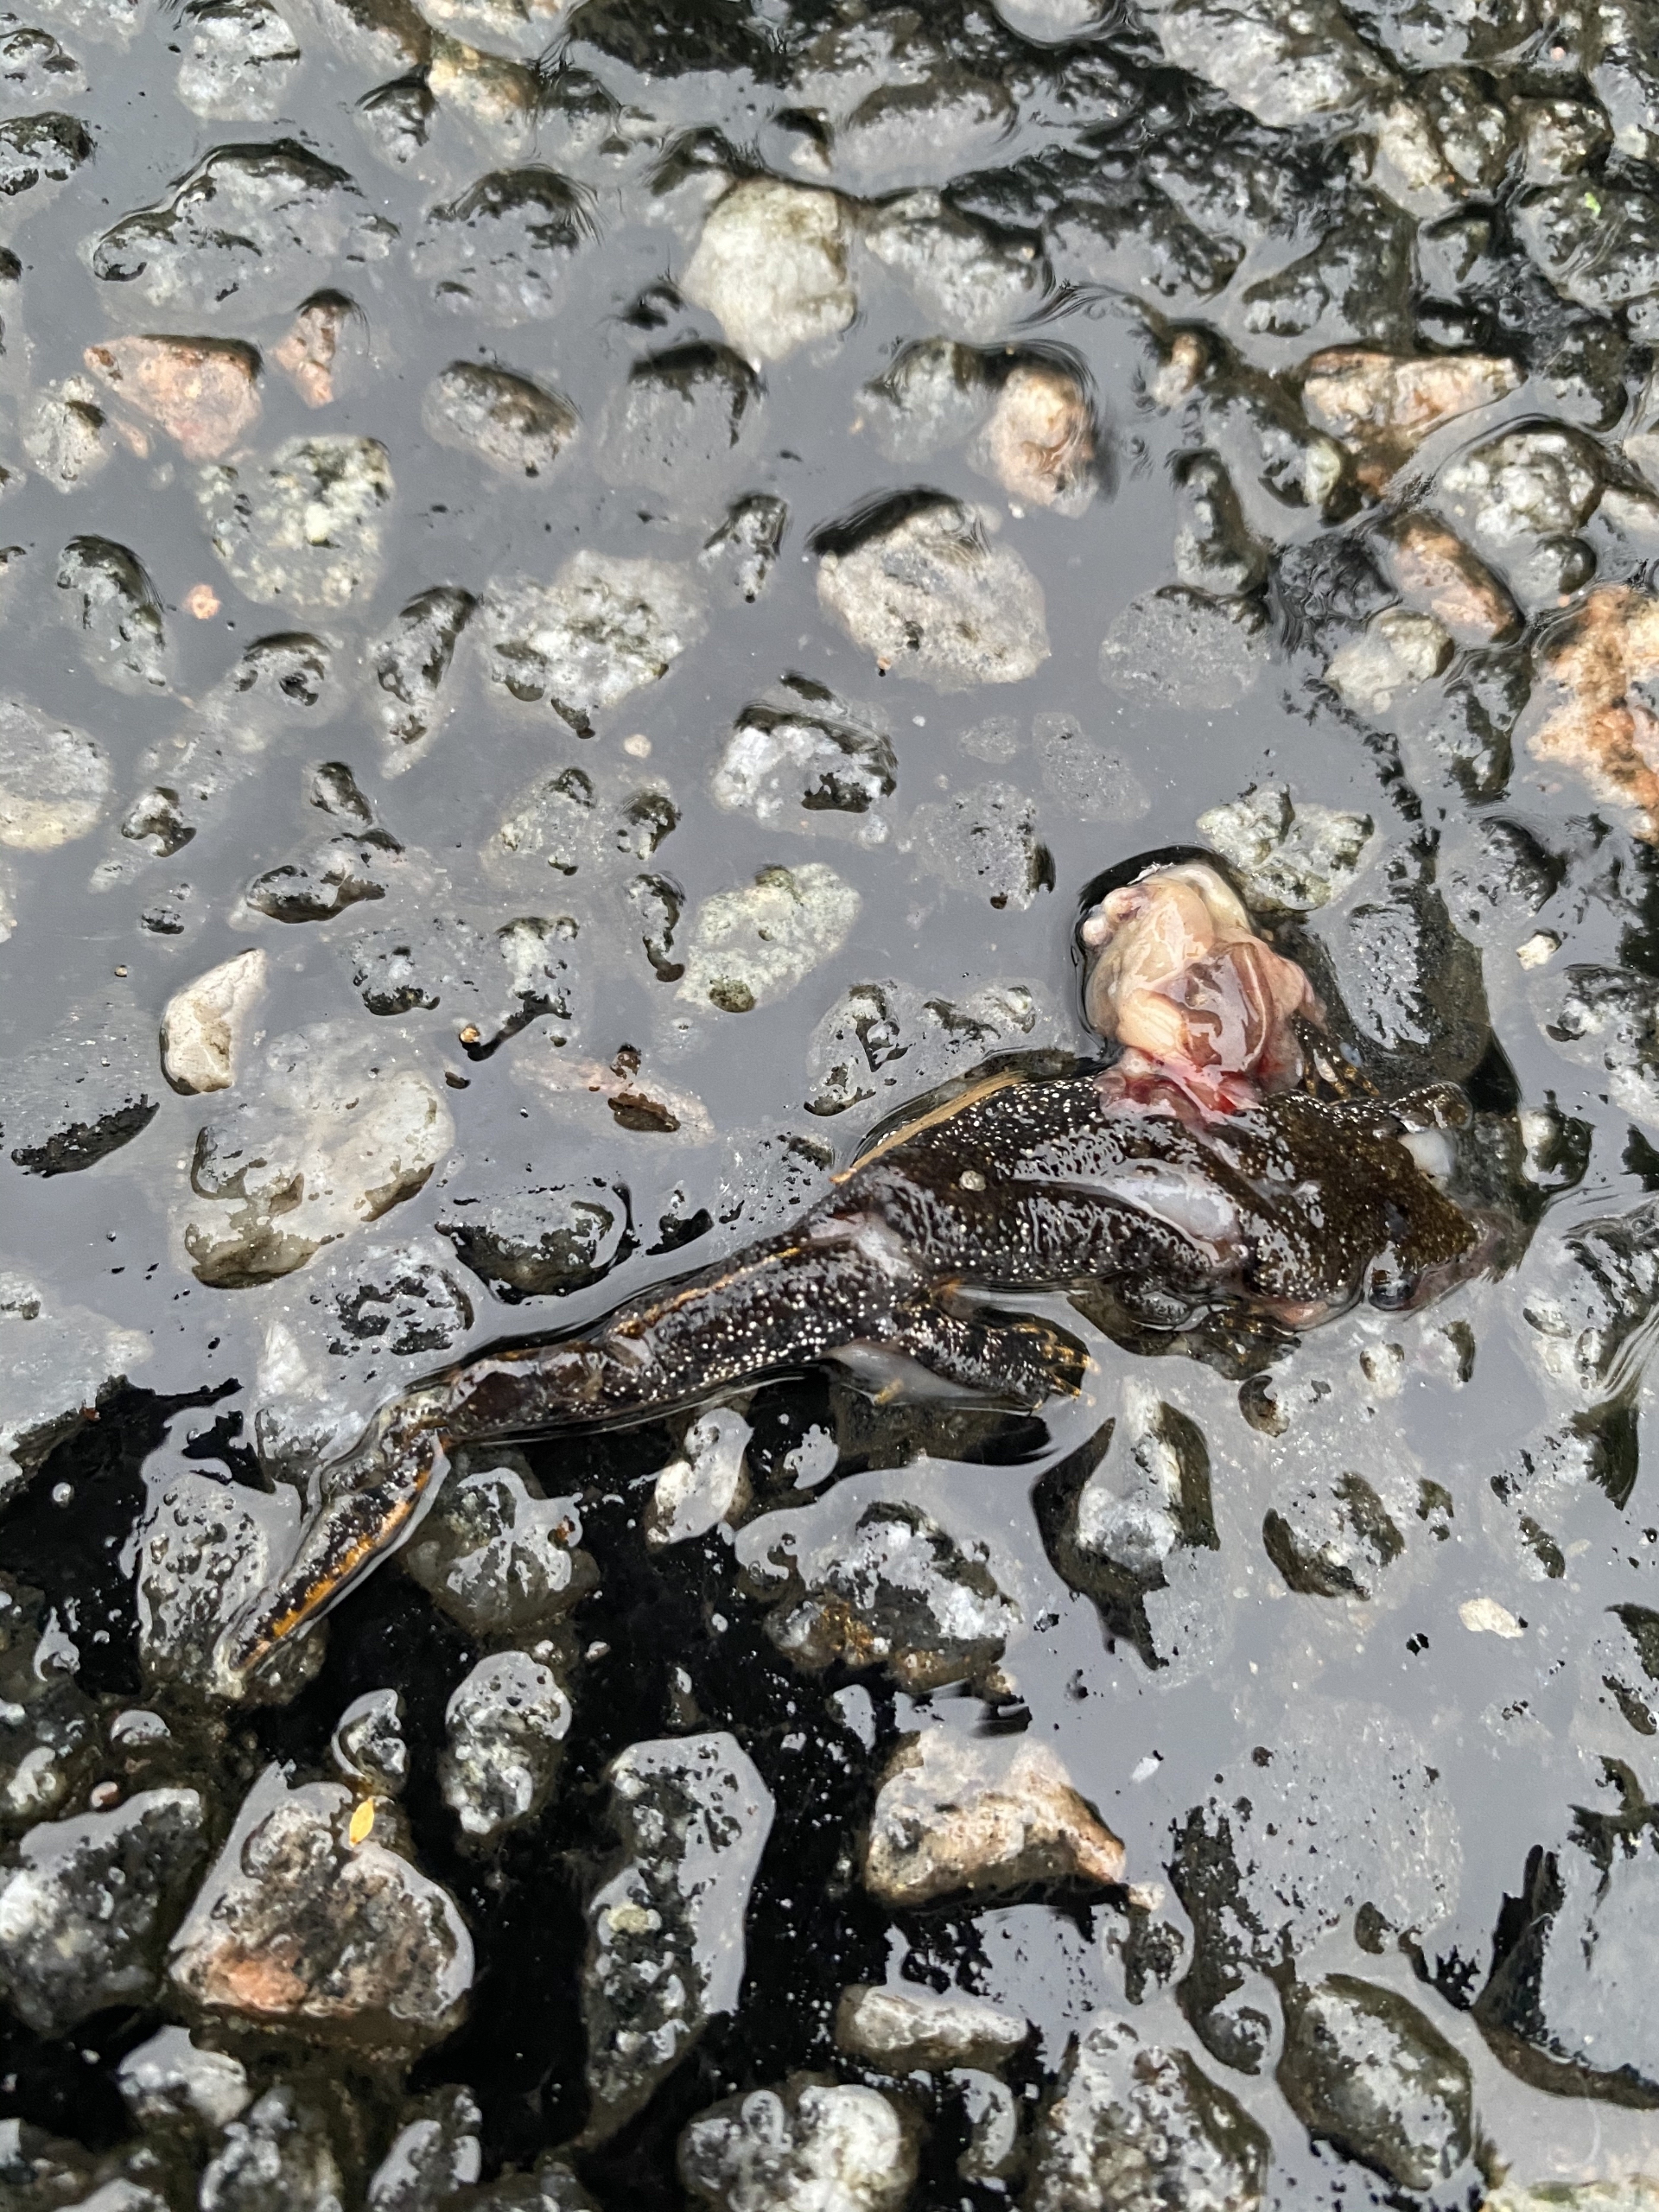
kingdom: Animalia
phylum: Chordata
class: Amphibia
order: Caudata
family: Salamandridae
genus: Triturus
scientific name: Triturus cristatus
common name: Stor vandsalamander
